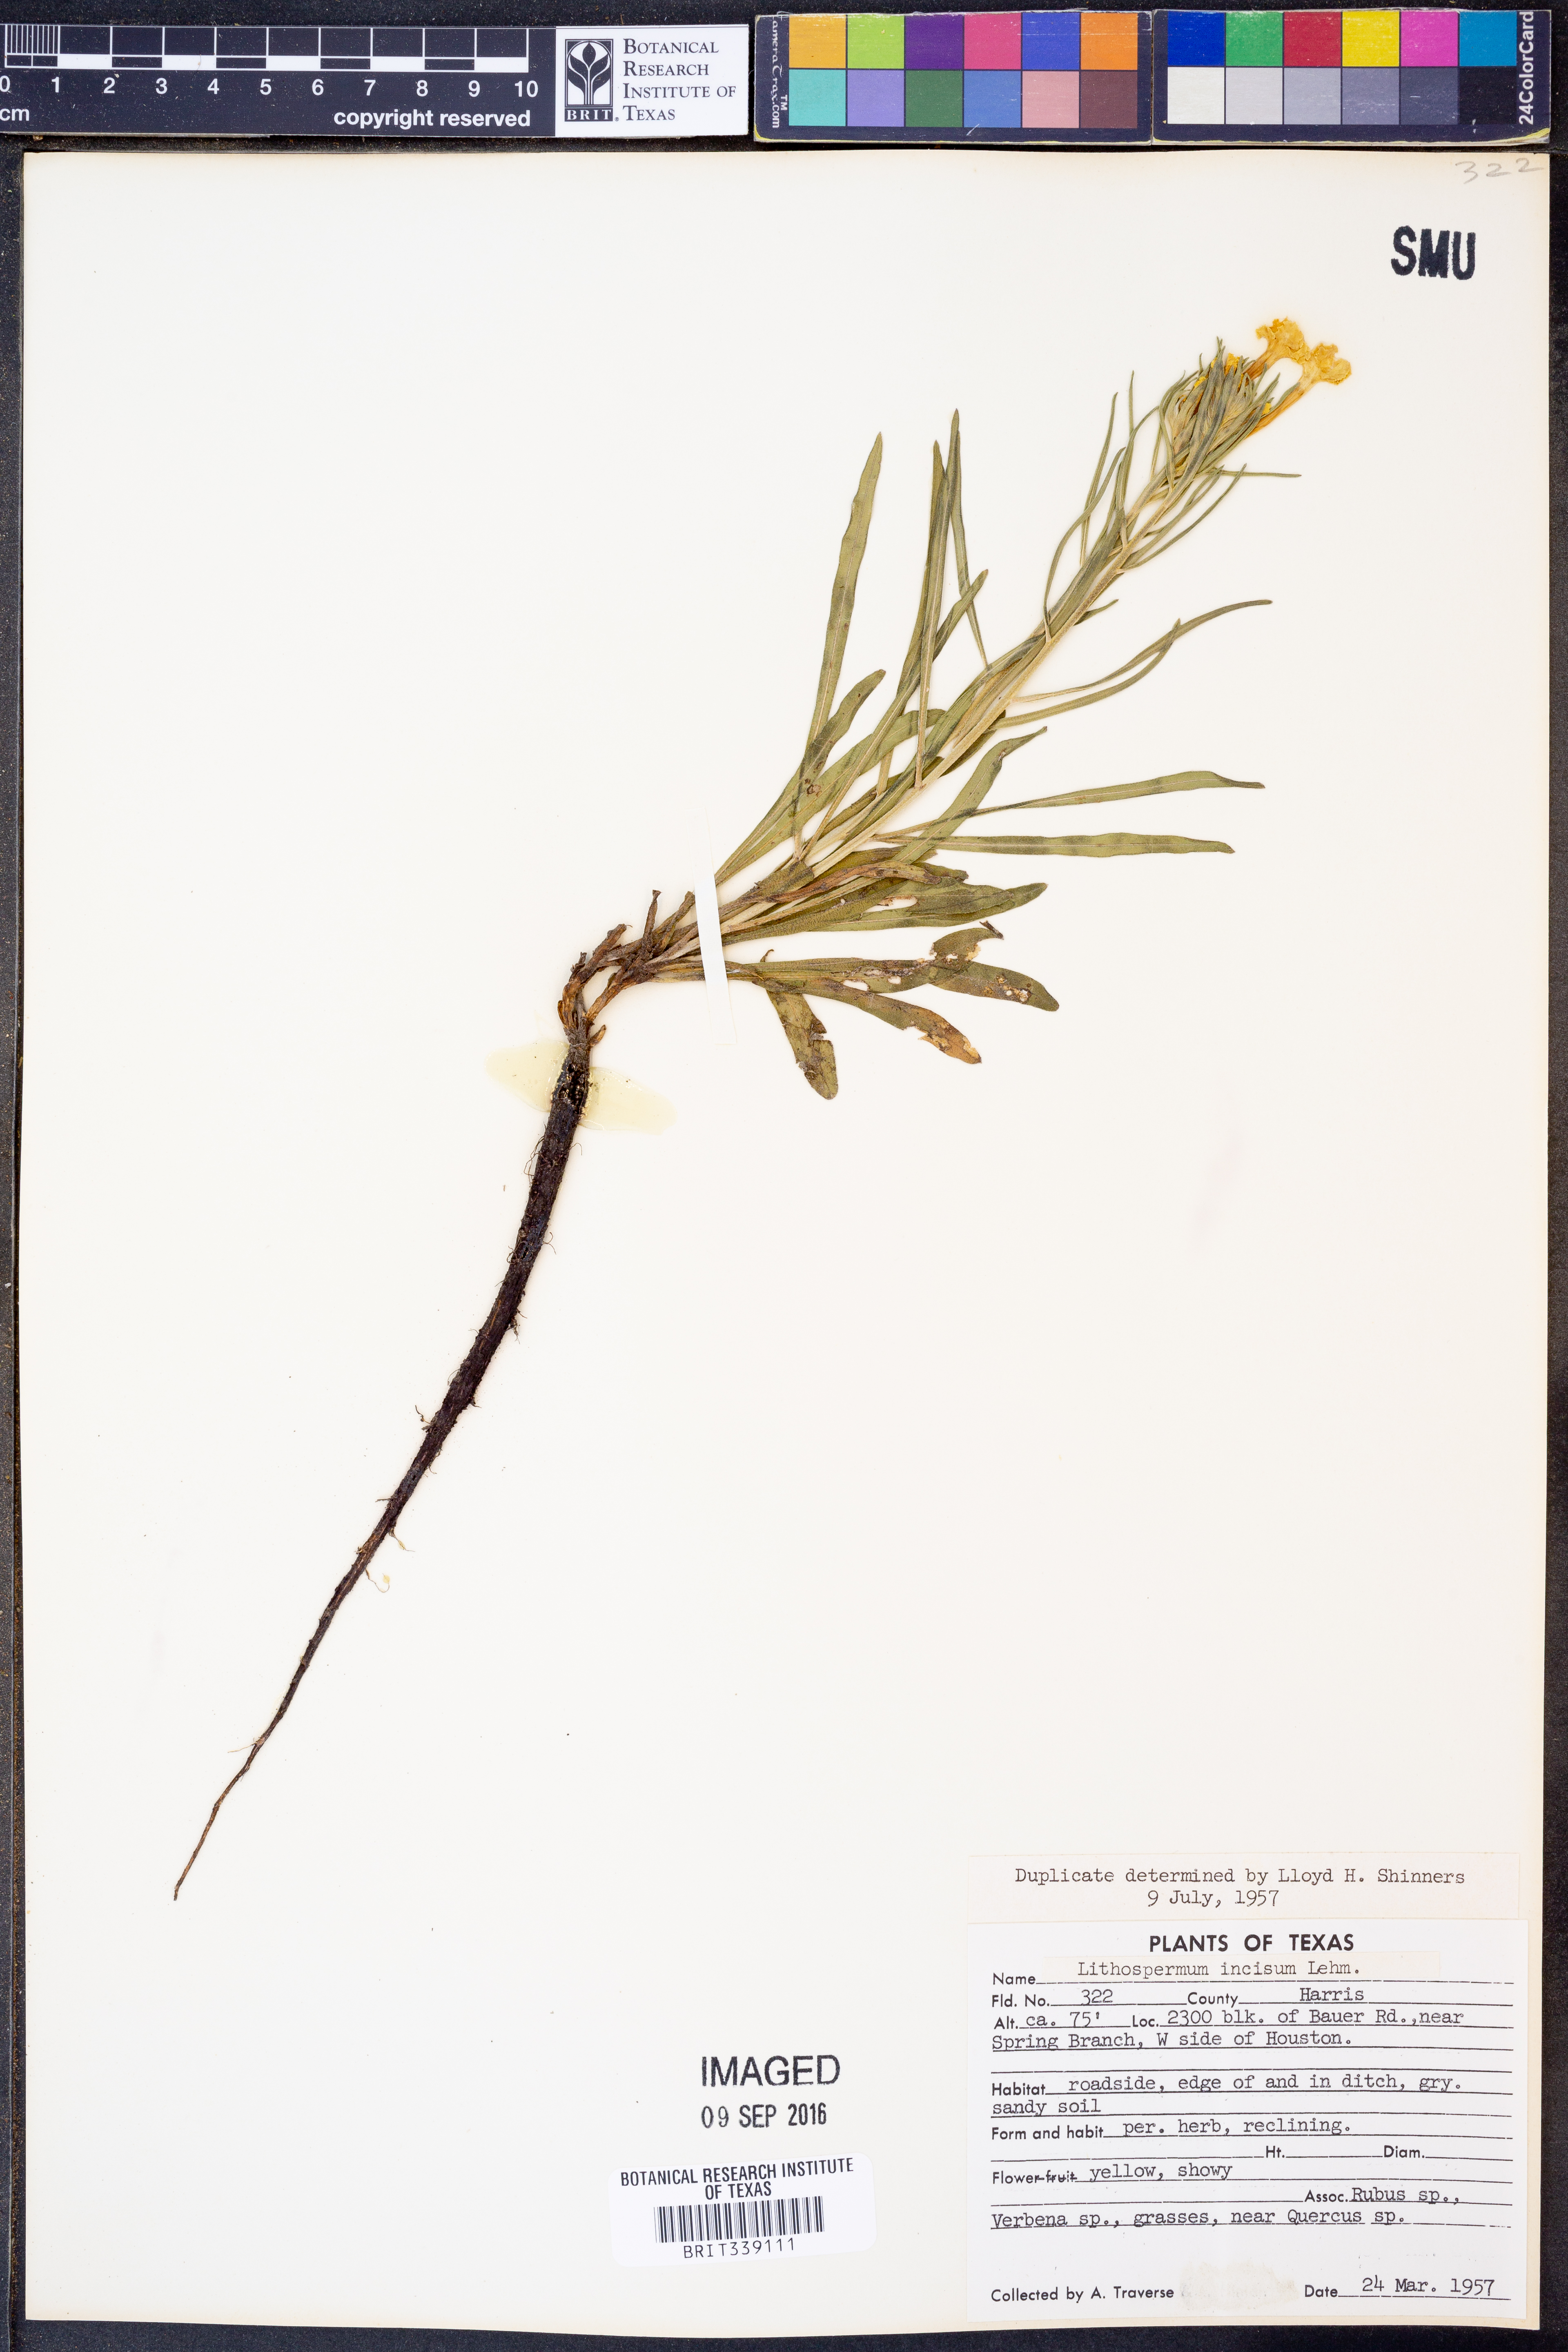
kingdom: Plantae
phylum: Tracheophyta
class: Magnoliopsida
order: Boraginales
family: Boraginaceae
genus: Lithospermum
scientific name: Lithospermum incisum
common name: Fringed gromwell
